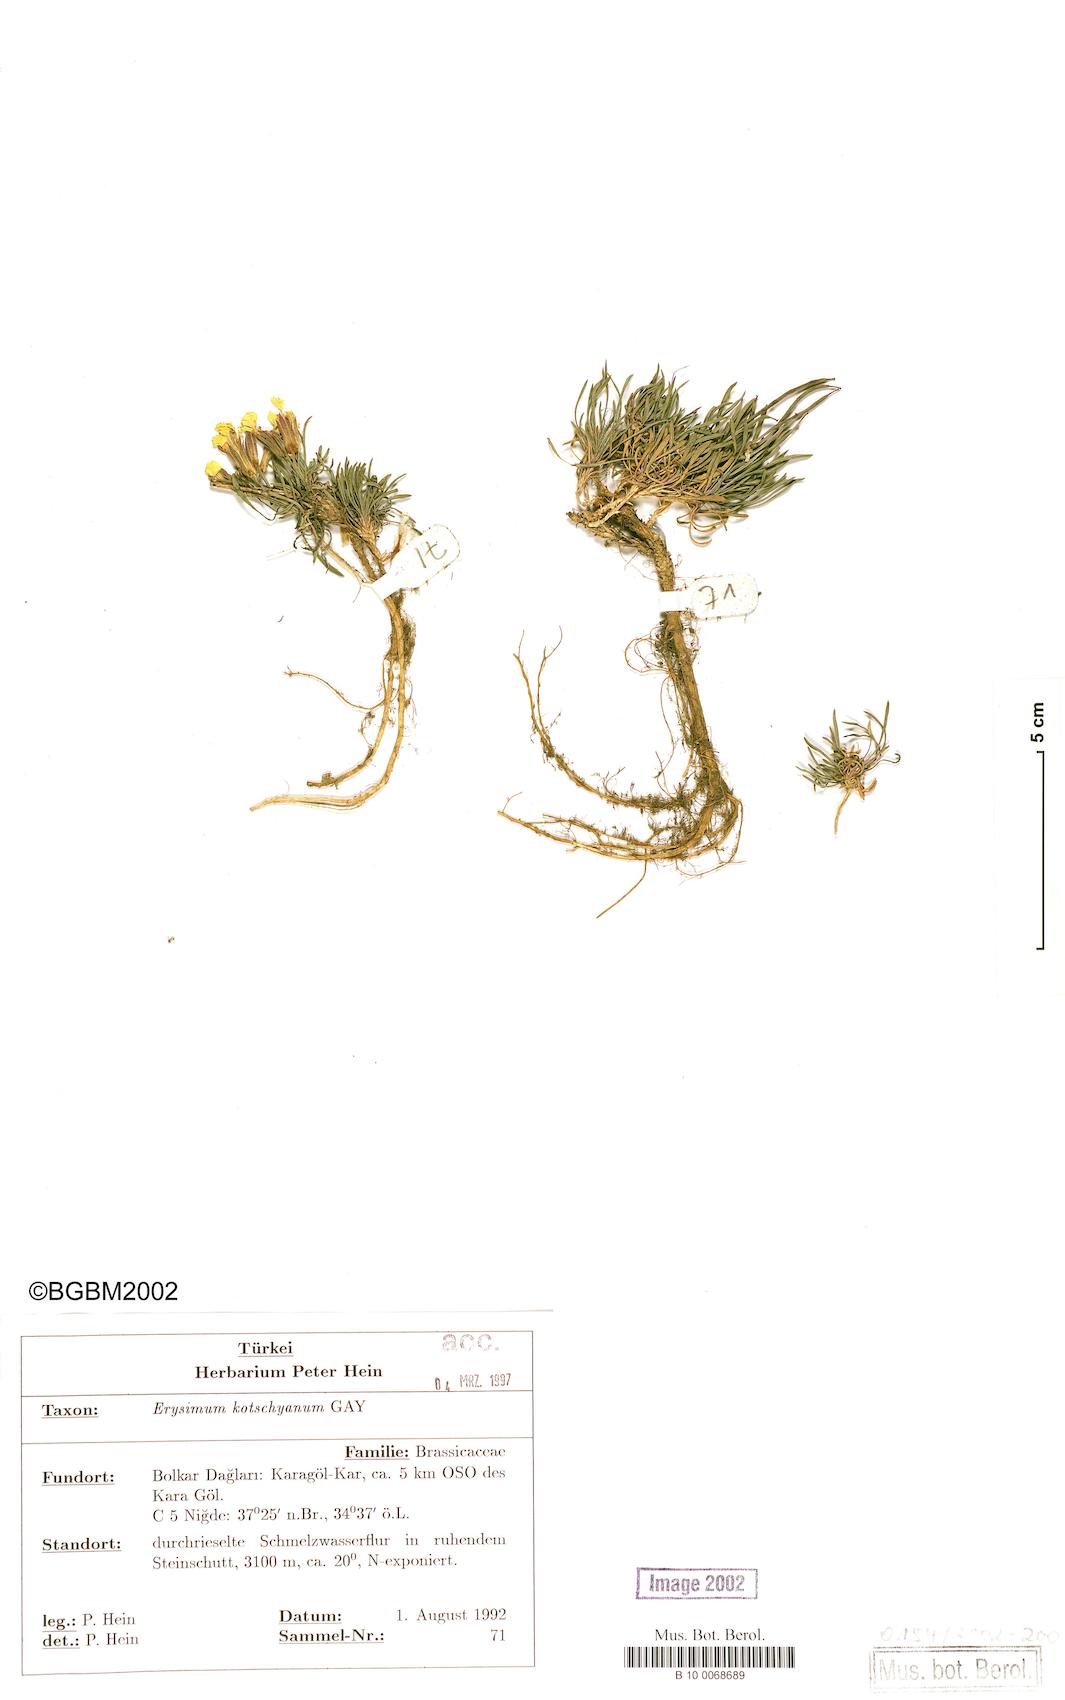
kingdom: Plantae
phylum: Tracheophyta
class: Magnoliopsida
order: Brassicales
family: Brassicaceae
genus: Erysimum
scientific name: Erysimum kotschyanum
